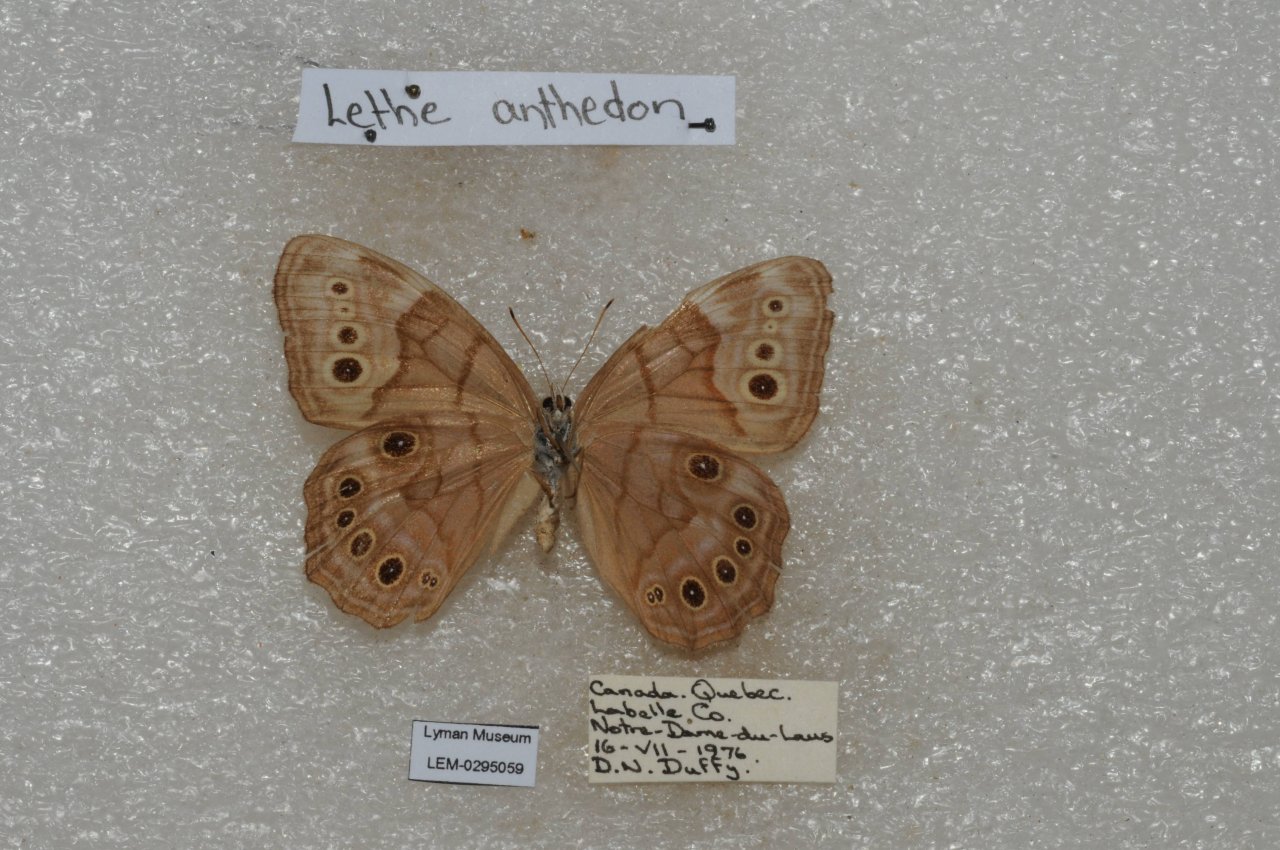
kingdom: Animalia
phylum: Arthropoda
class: Insecta
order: Lepidoptera
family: Nymphalidae
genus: Lethe
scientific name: Lethe anthedon
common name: Northern Pearly-Eye
